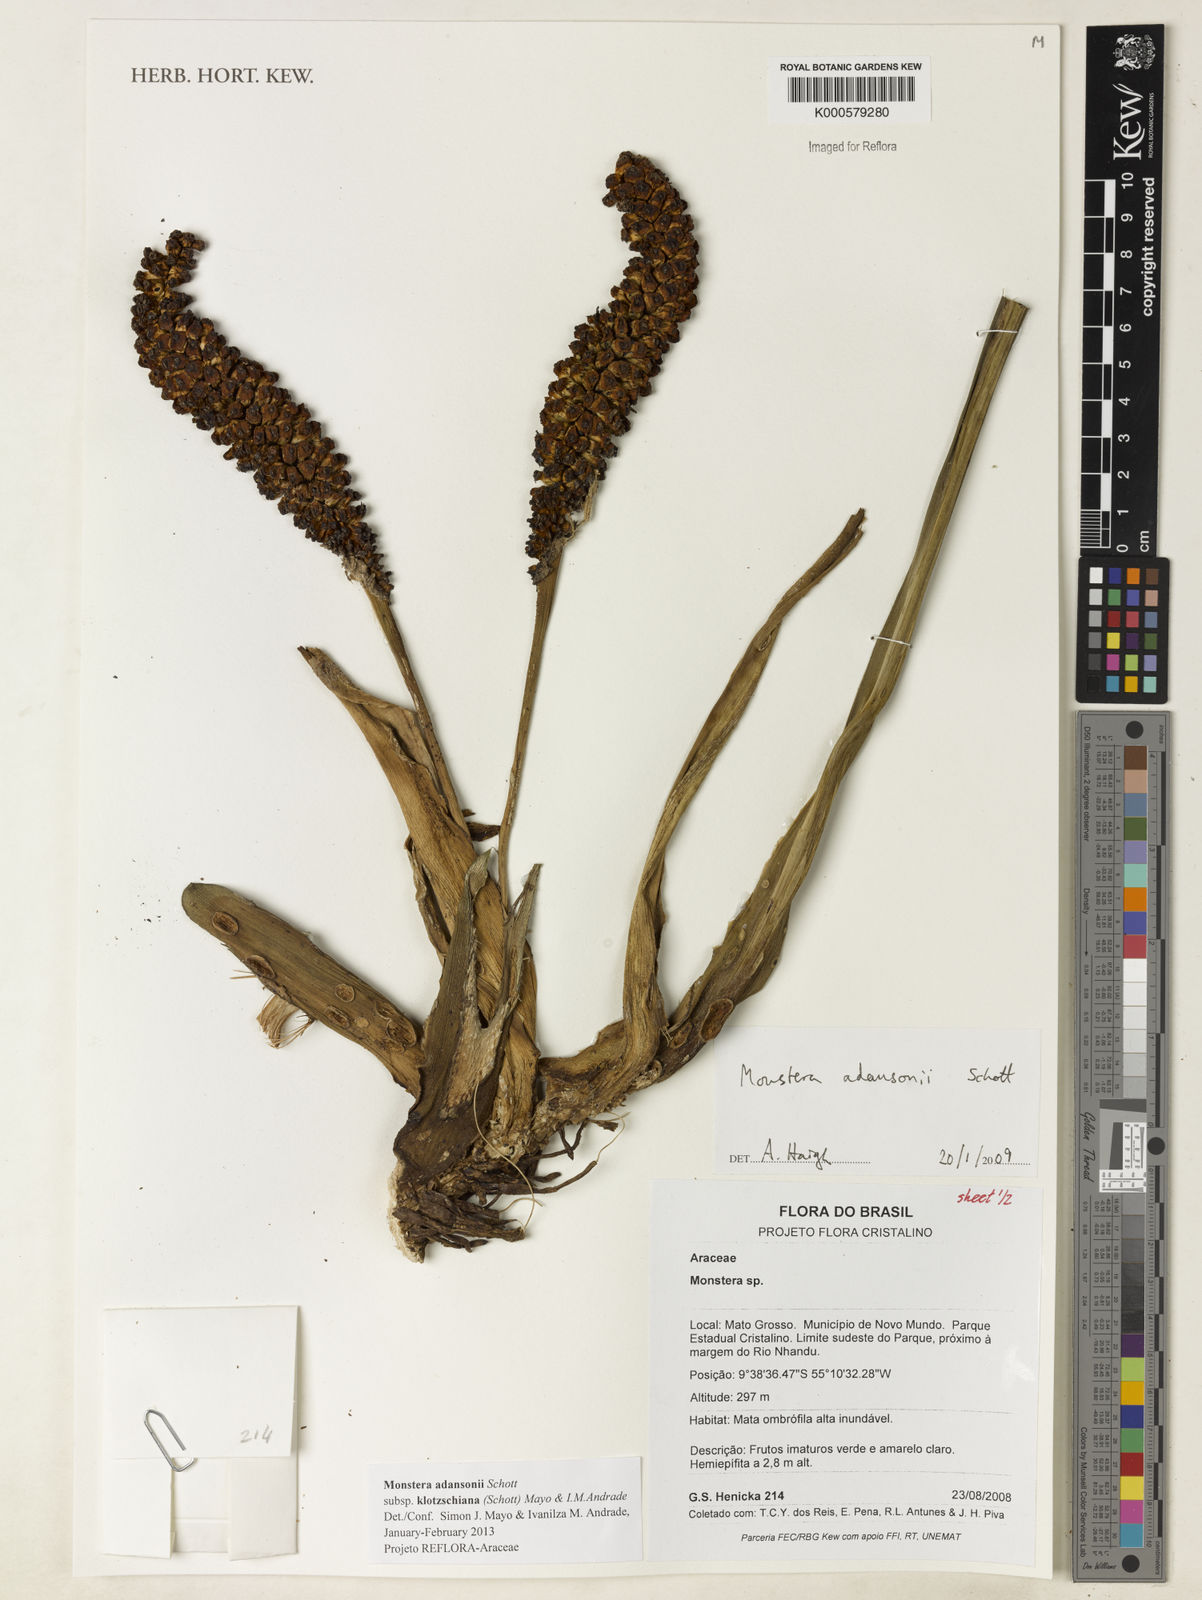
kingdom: Plantae
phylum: Tracheophyta
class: Liliopsida
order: Alismatales
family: Araceae
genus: Monstera
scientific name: Monstera adansonii
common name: Tarovine
